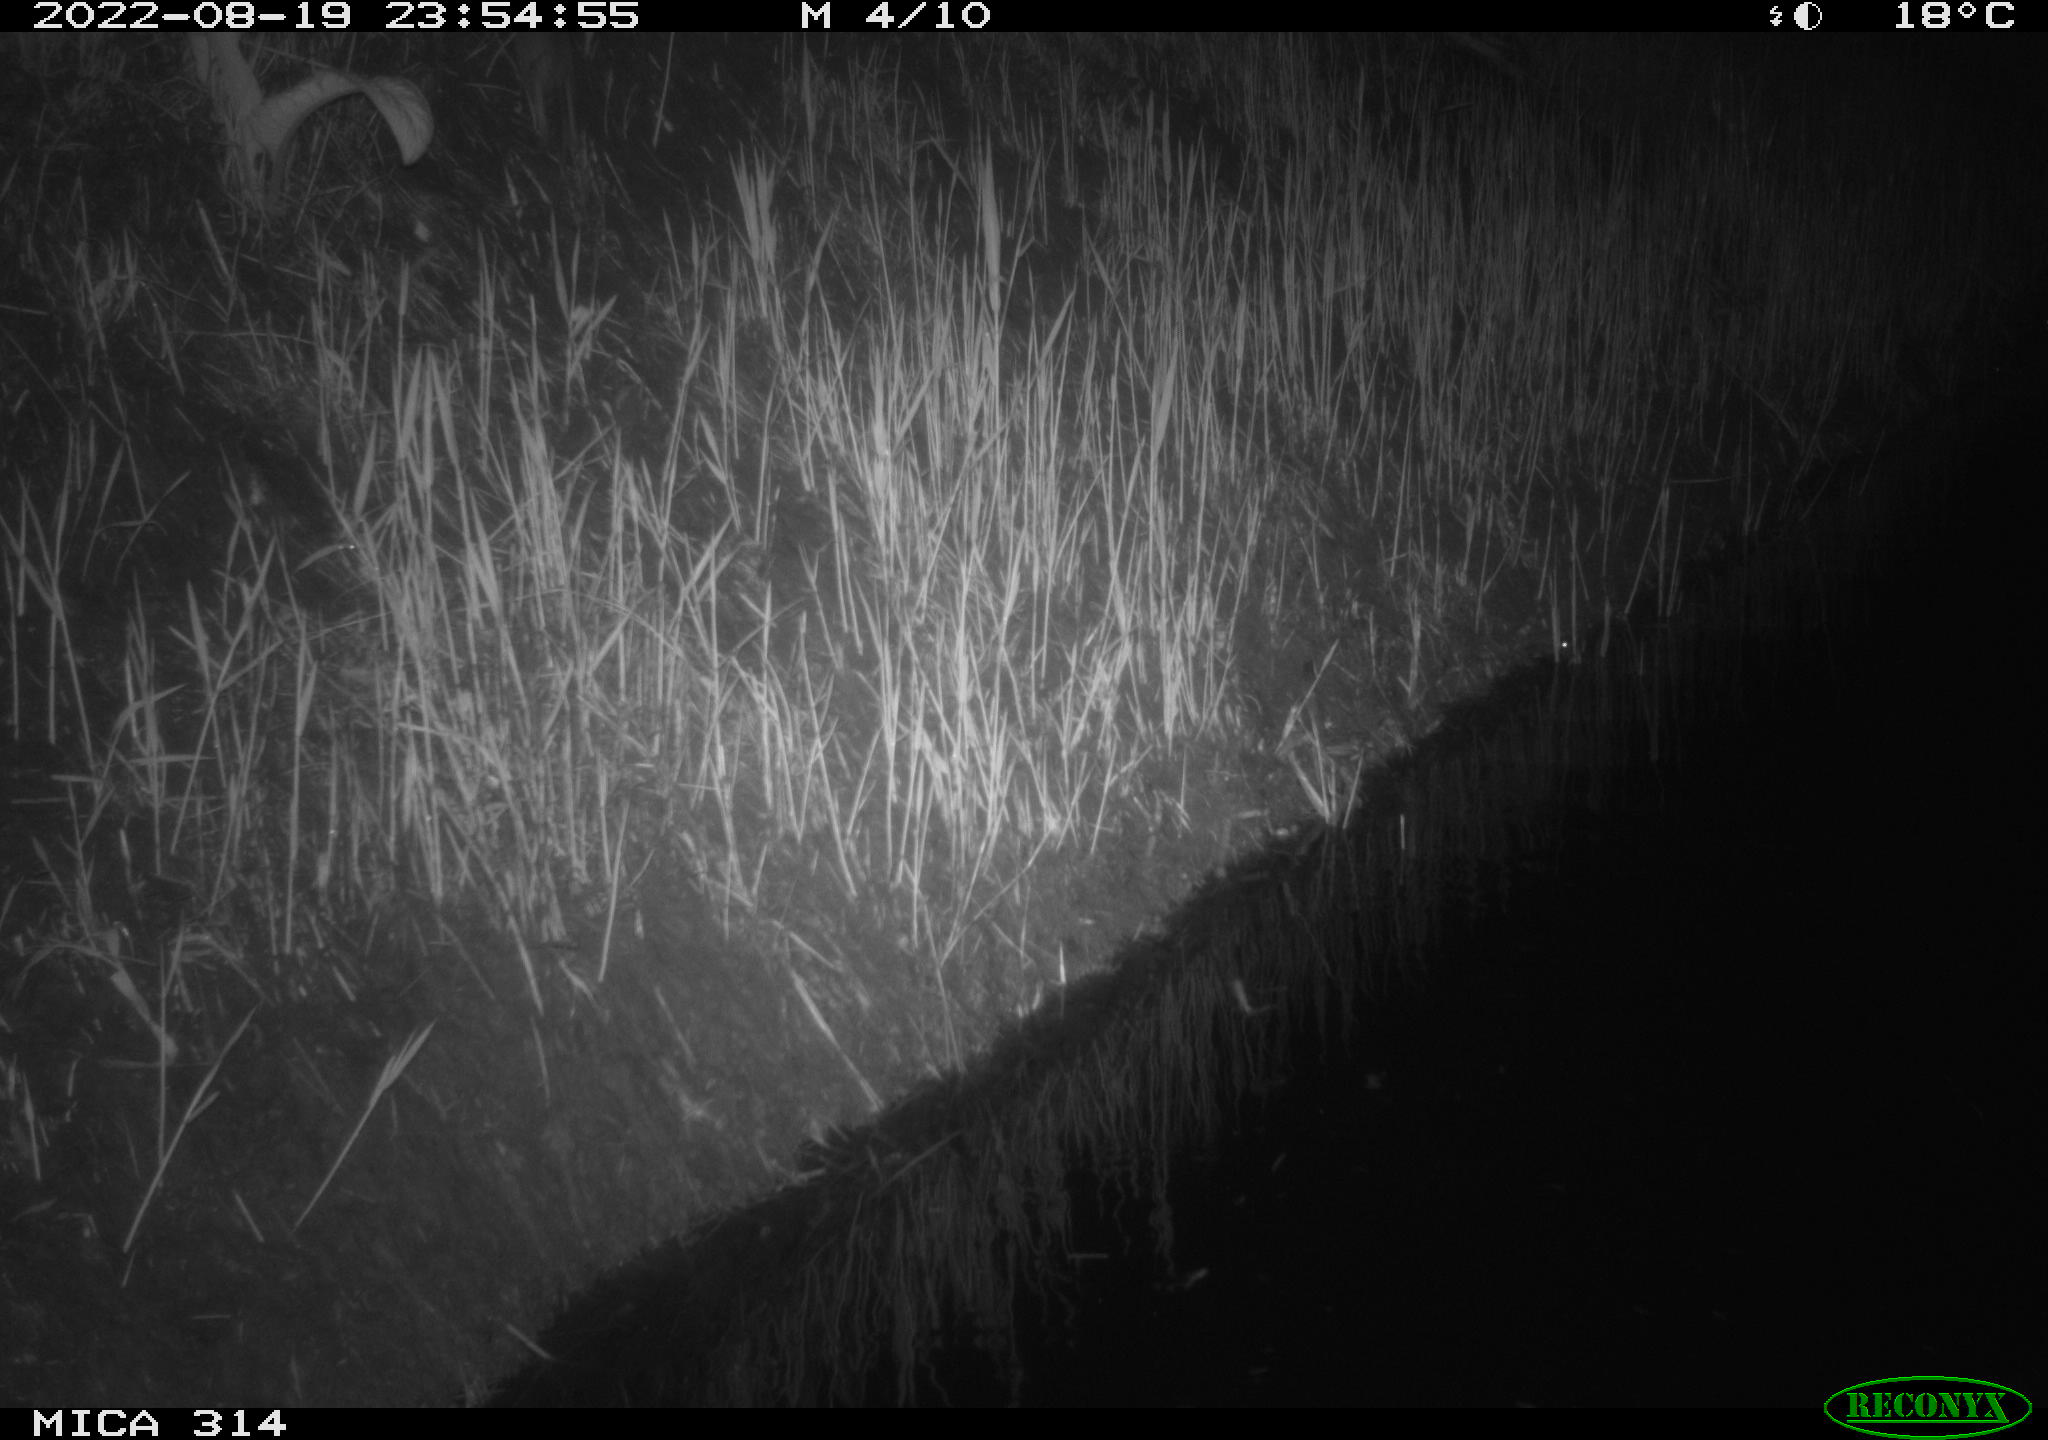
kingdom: Animalia
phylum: Chordata
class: Mammalia
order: Rodentia
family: Muridae
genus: Rattus
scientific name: Rattus norvegicus
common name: Brown rat
